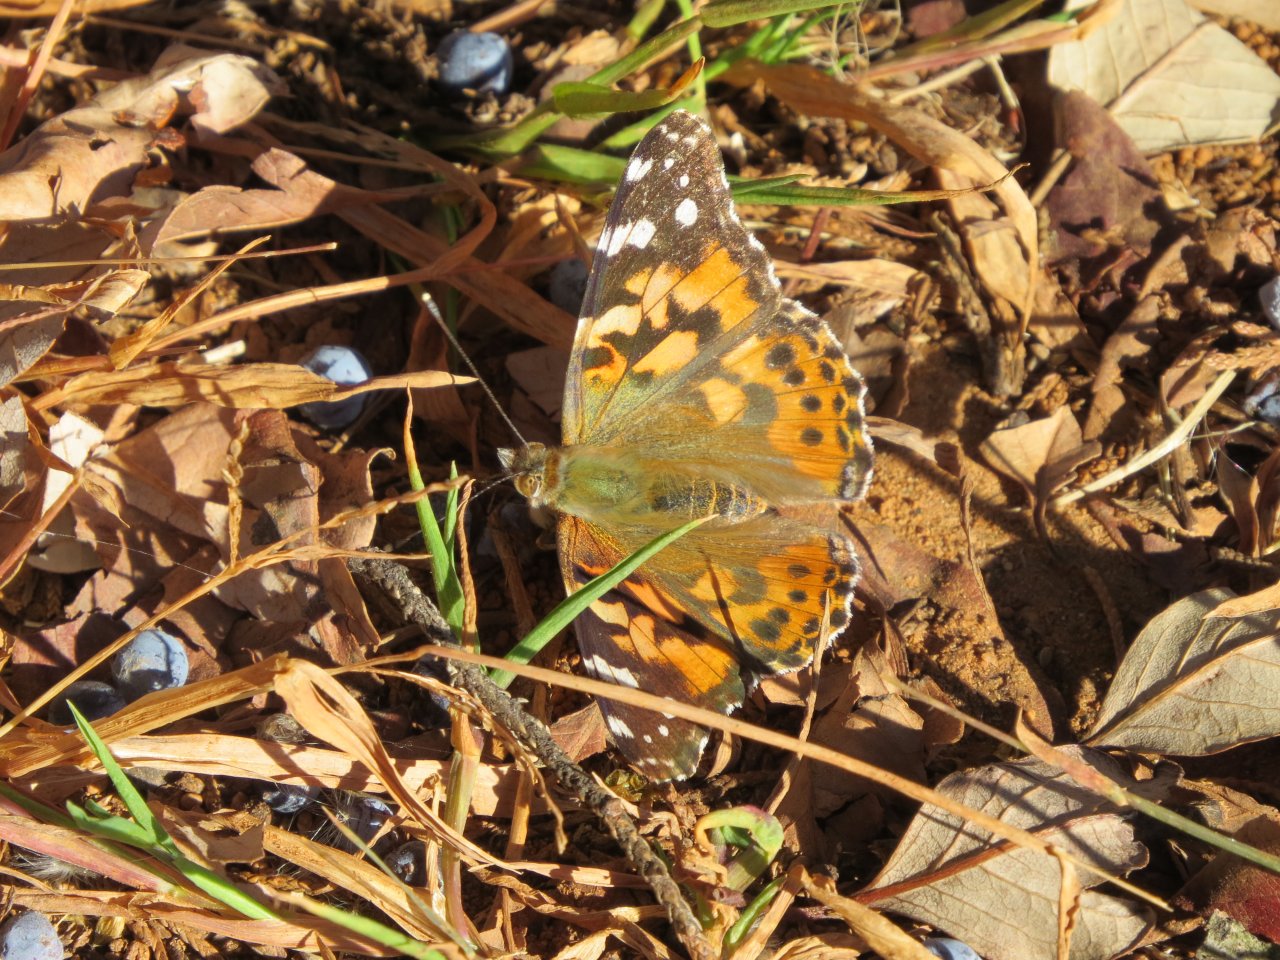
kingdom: Animalia
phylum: Arthropoda
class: Insecta
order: Lepidoptera
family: Nymphalidae
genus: Vanessa
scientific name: Vanessa cardui
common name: Painted Lady
